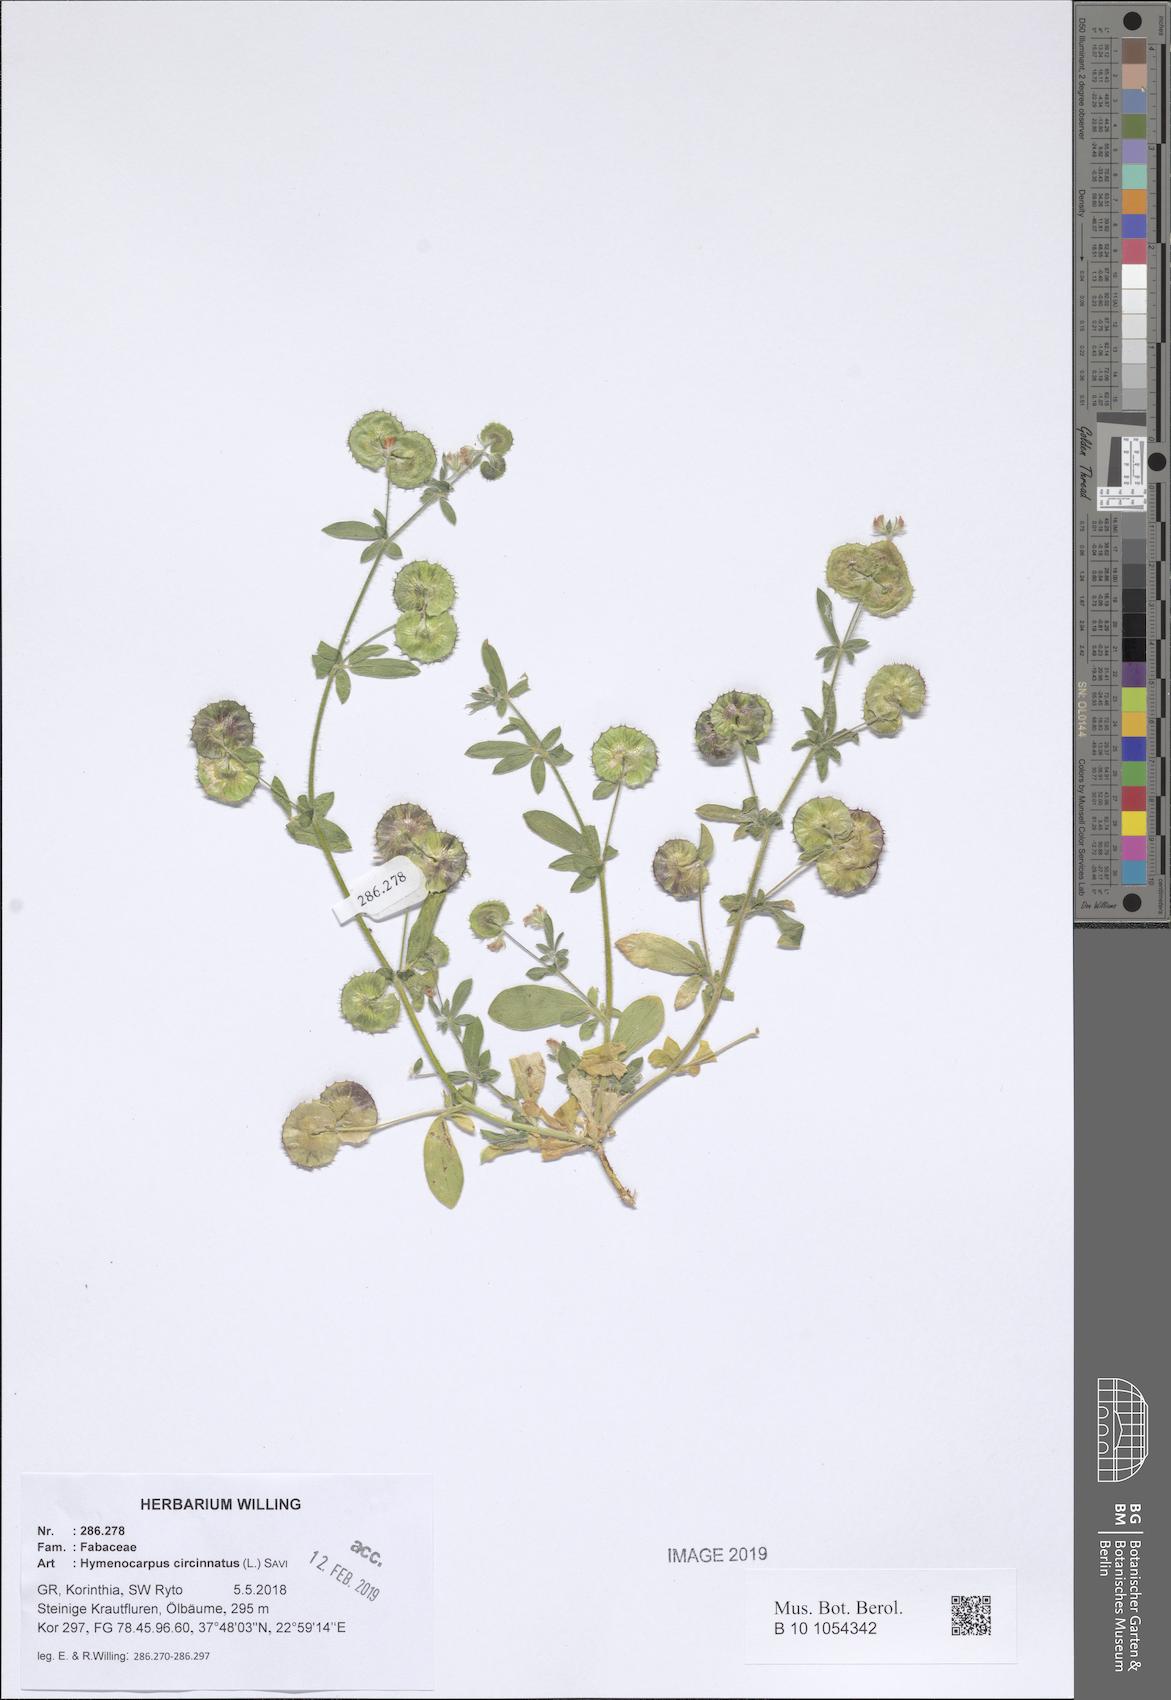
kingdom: Plantae
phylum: Tracheophyta
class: Magnoliopsida
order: Fabales
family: Fabaceae
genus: Anthyllis
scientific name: Anthyllis circinnata
